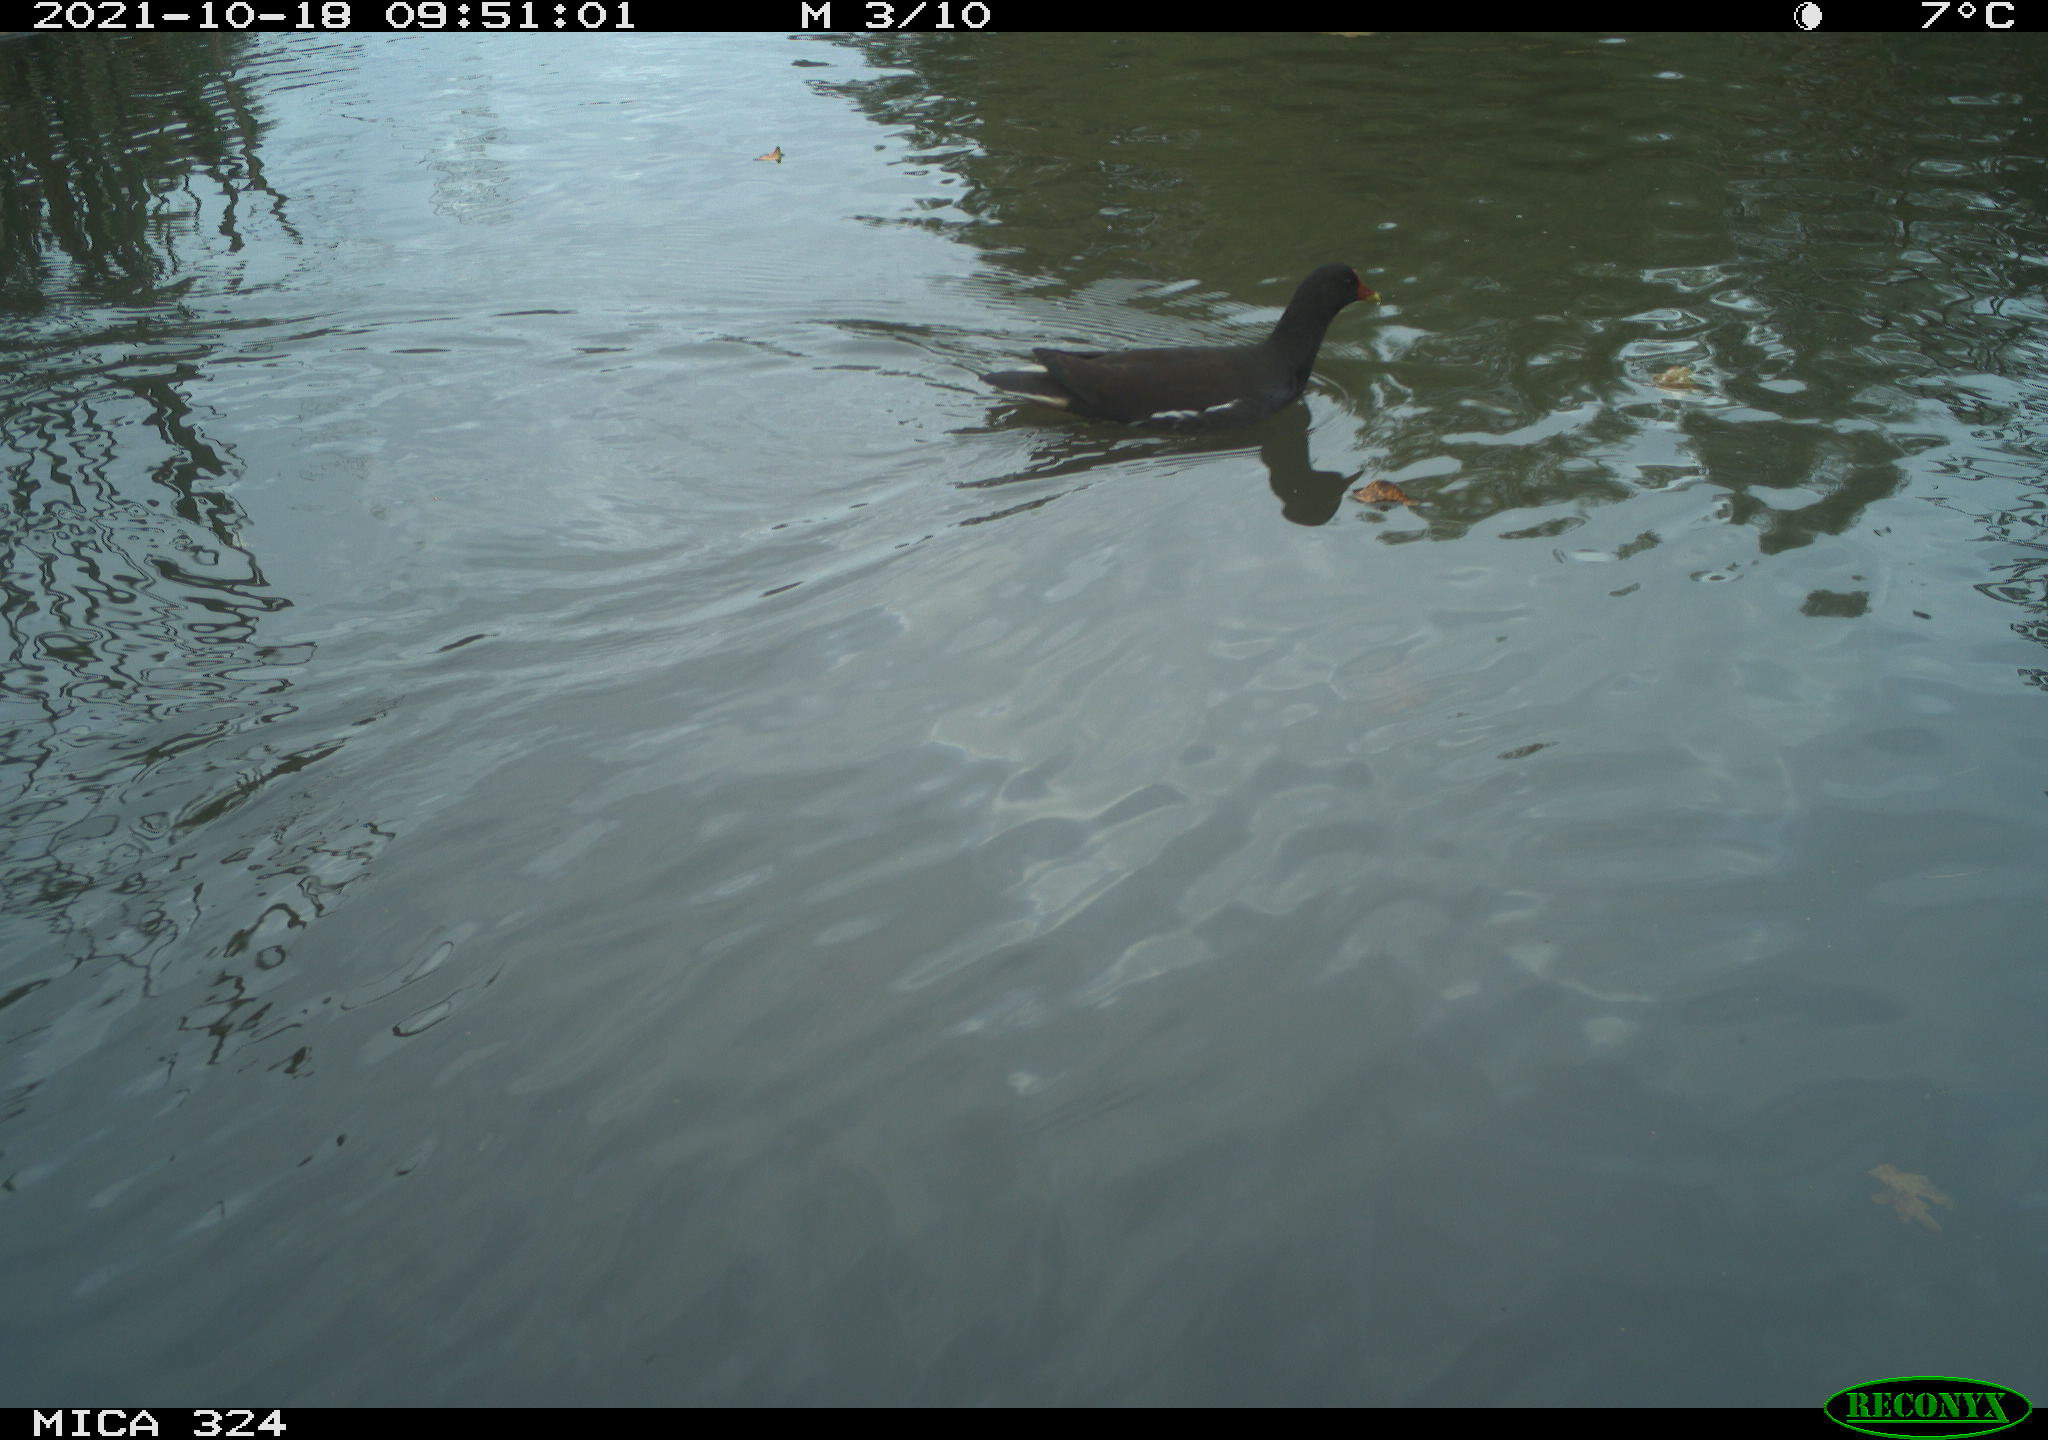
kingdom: Animalia
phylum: Chordata
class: Aves
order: Gruiformes
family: Rallidae
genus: Gallinula
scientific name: Gallinula chloropus
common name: Common moorhen
